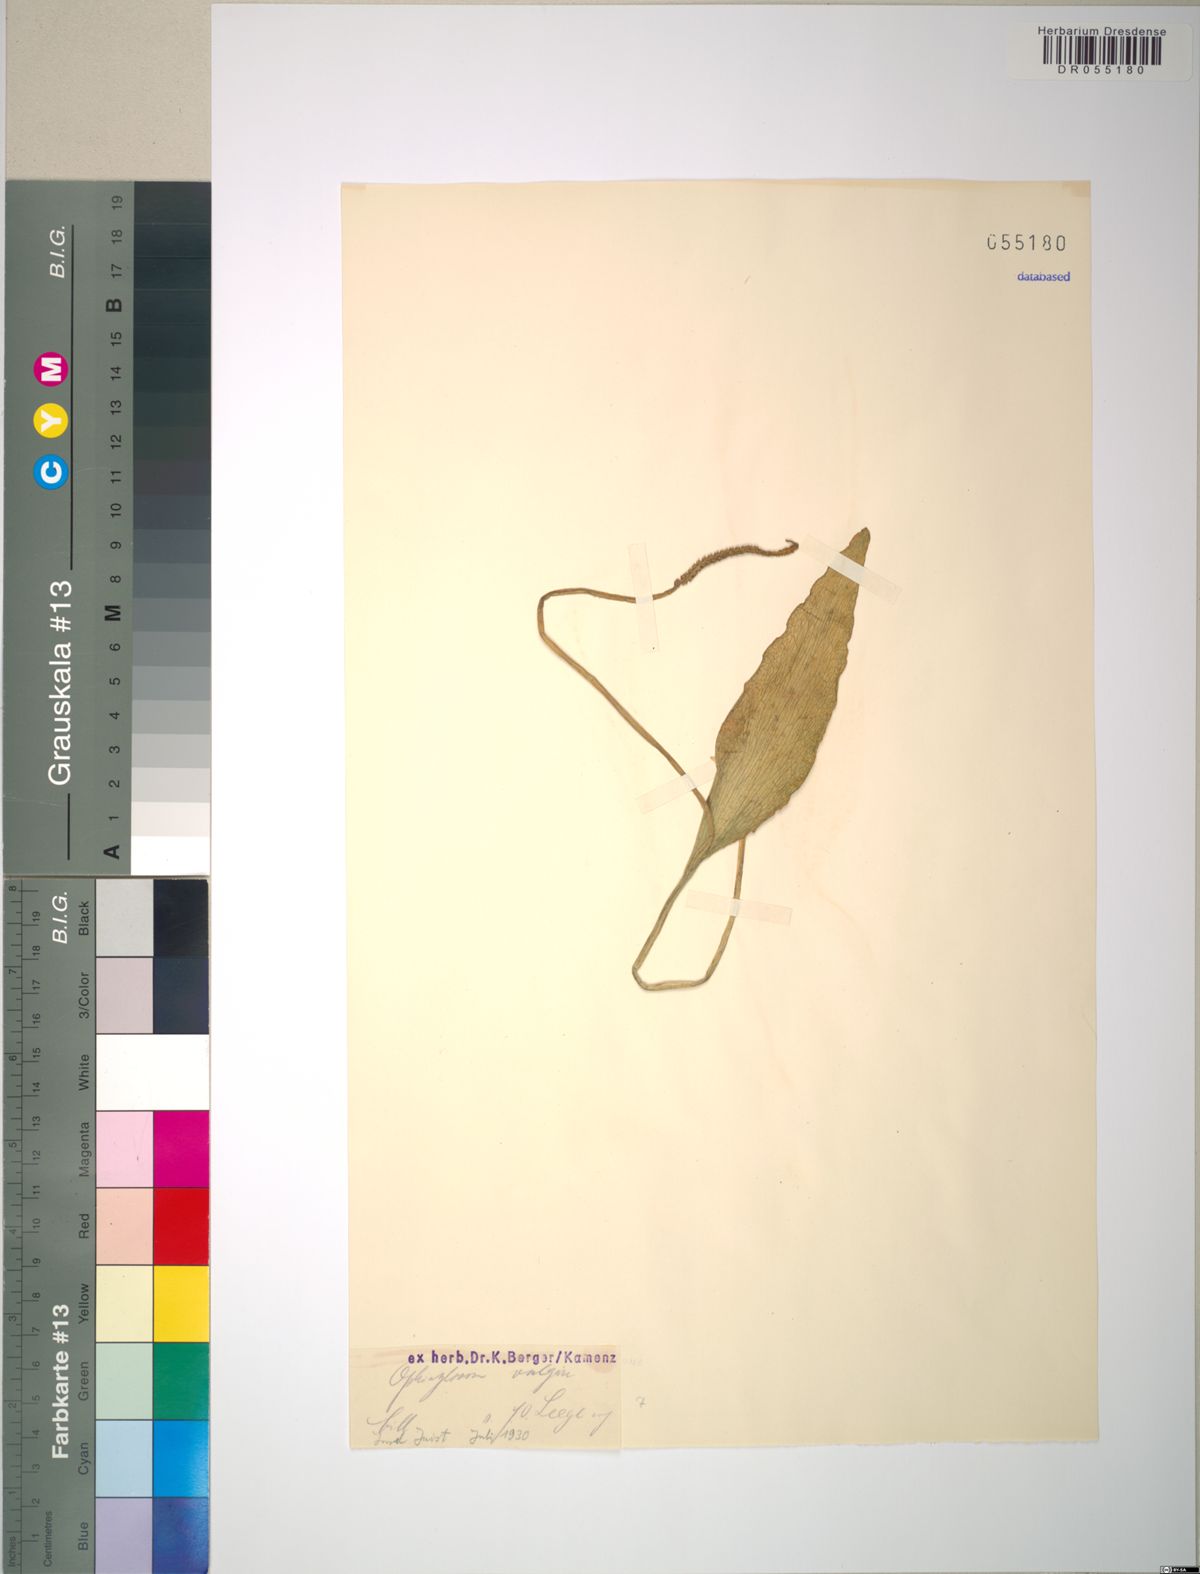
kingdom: Plantae
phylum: Tracheophyta
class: Polypodiopsida
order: Ophioglossales
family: Ophioglossaceae
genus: Ophioglossum
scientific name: Ophioglossum vulgatum
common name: Adder's-tongue
